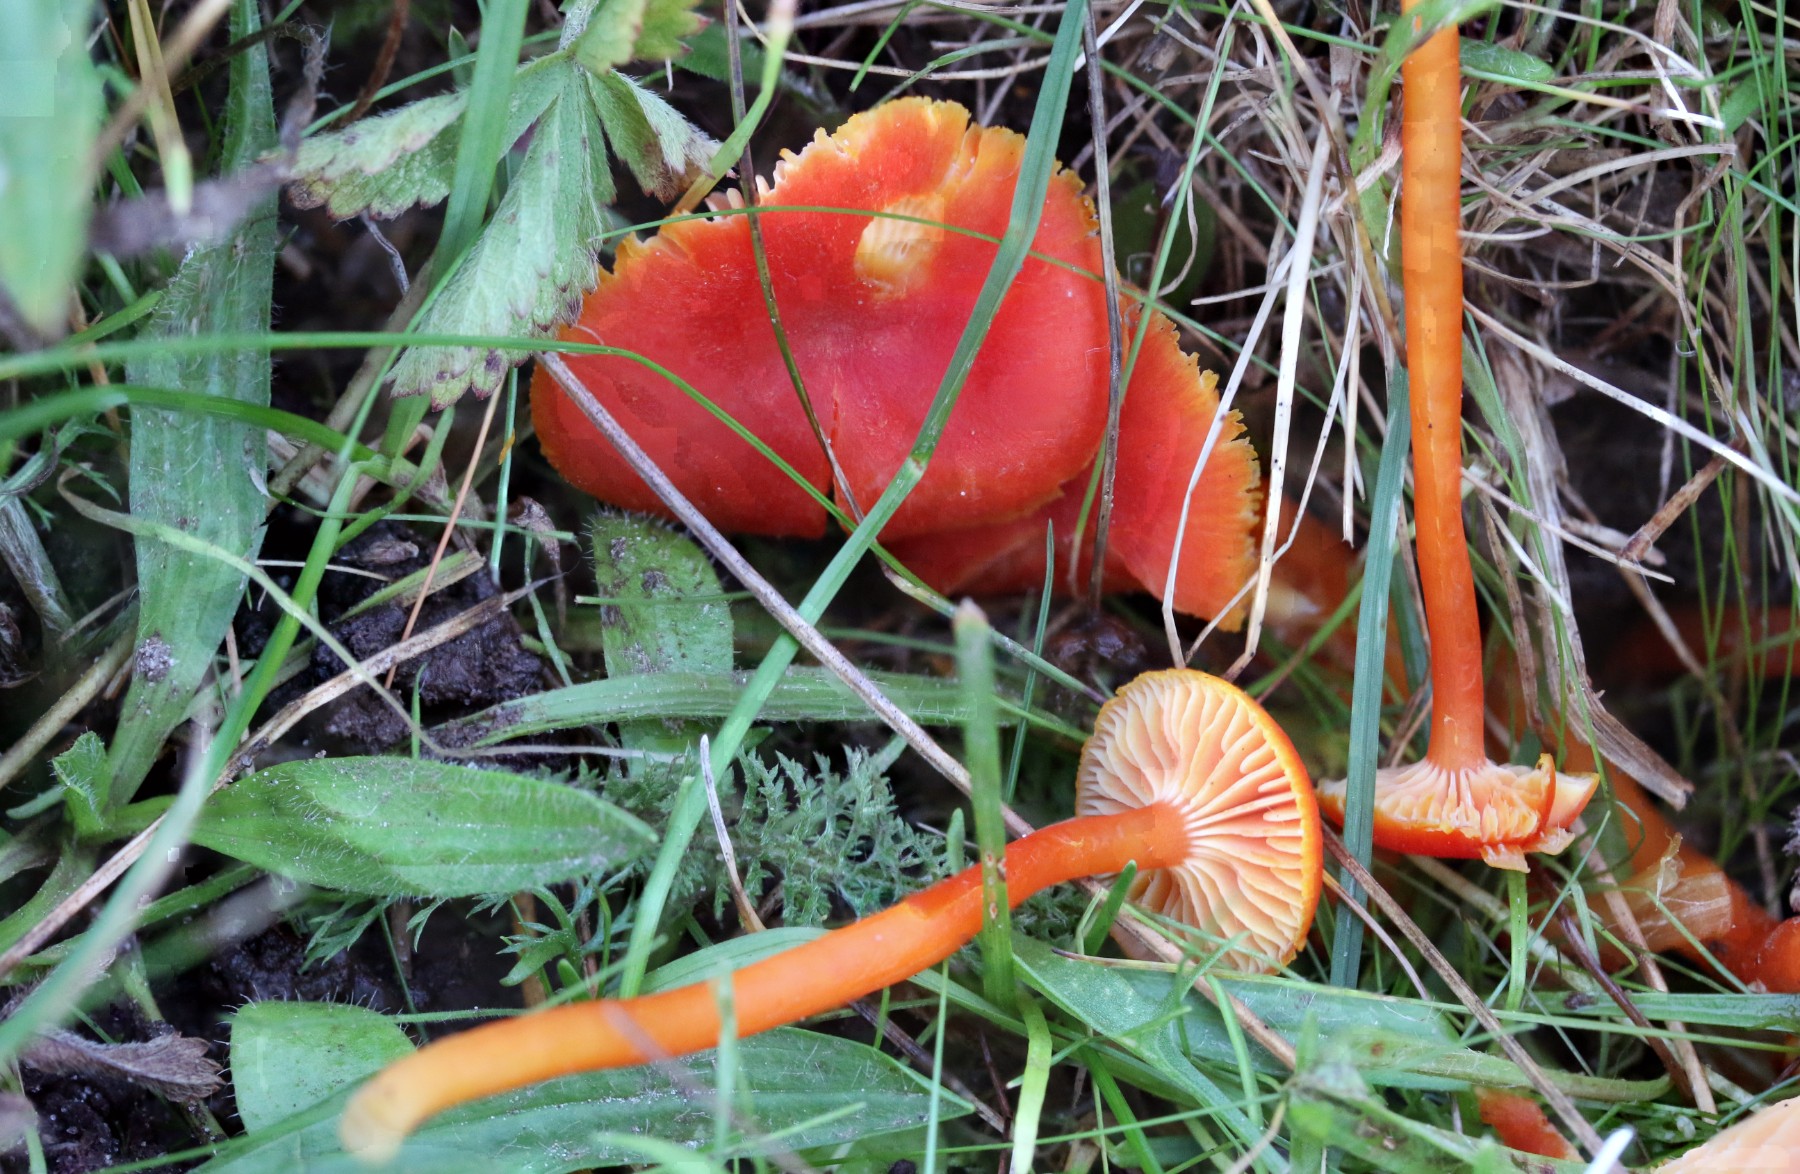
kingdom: Fungi
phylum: Basidiomycota
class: Agaricomycetes
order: Agaricales
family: Hygrophoraceae
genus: Hygrocybe
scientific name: Hygrocybe miniata
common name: mønje-vokshat
